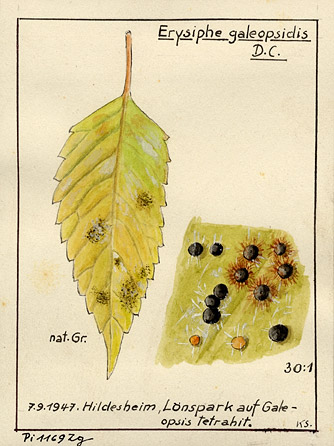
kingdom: Fungi
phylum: Ascomycota
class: Leotiomycetes
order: Helotiales
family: Erysiphaceae
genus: Neoerysiphe
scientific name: Neoerysiphe galeopsidis
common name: Mint mildew
